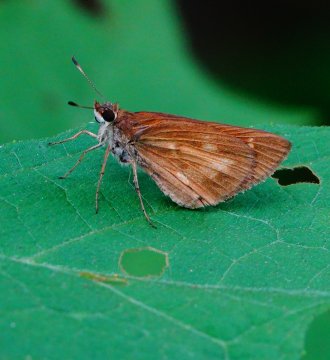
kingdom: Animalia
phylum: Arthropoda
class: Insecta
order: Lepidoptera
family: Hesperiidae
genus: Poanes
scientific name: Poanes viator
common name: Broad-winged Skipper
